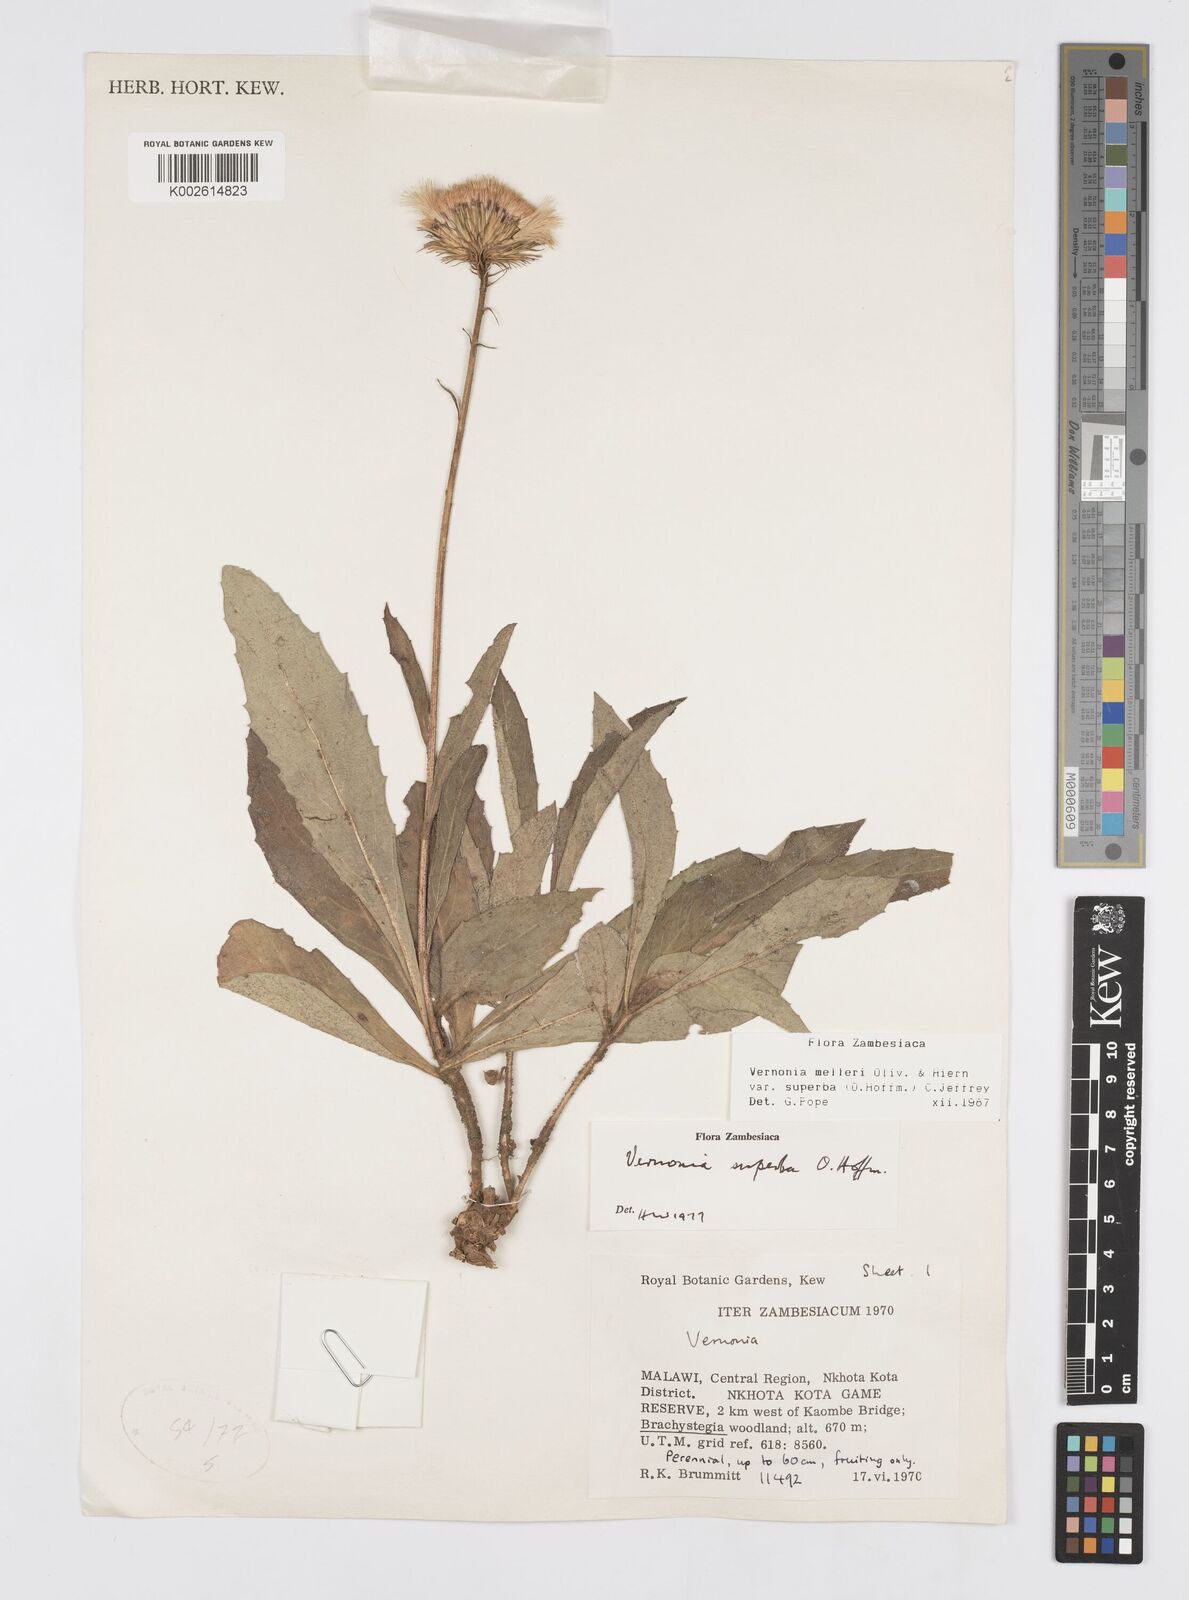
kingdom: Plantae
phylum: Tracheophyta
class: Magnoliopsida
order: Asterales
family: Asteraceae
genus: Linzia
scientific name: Linzia melleri
